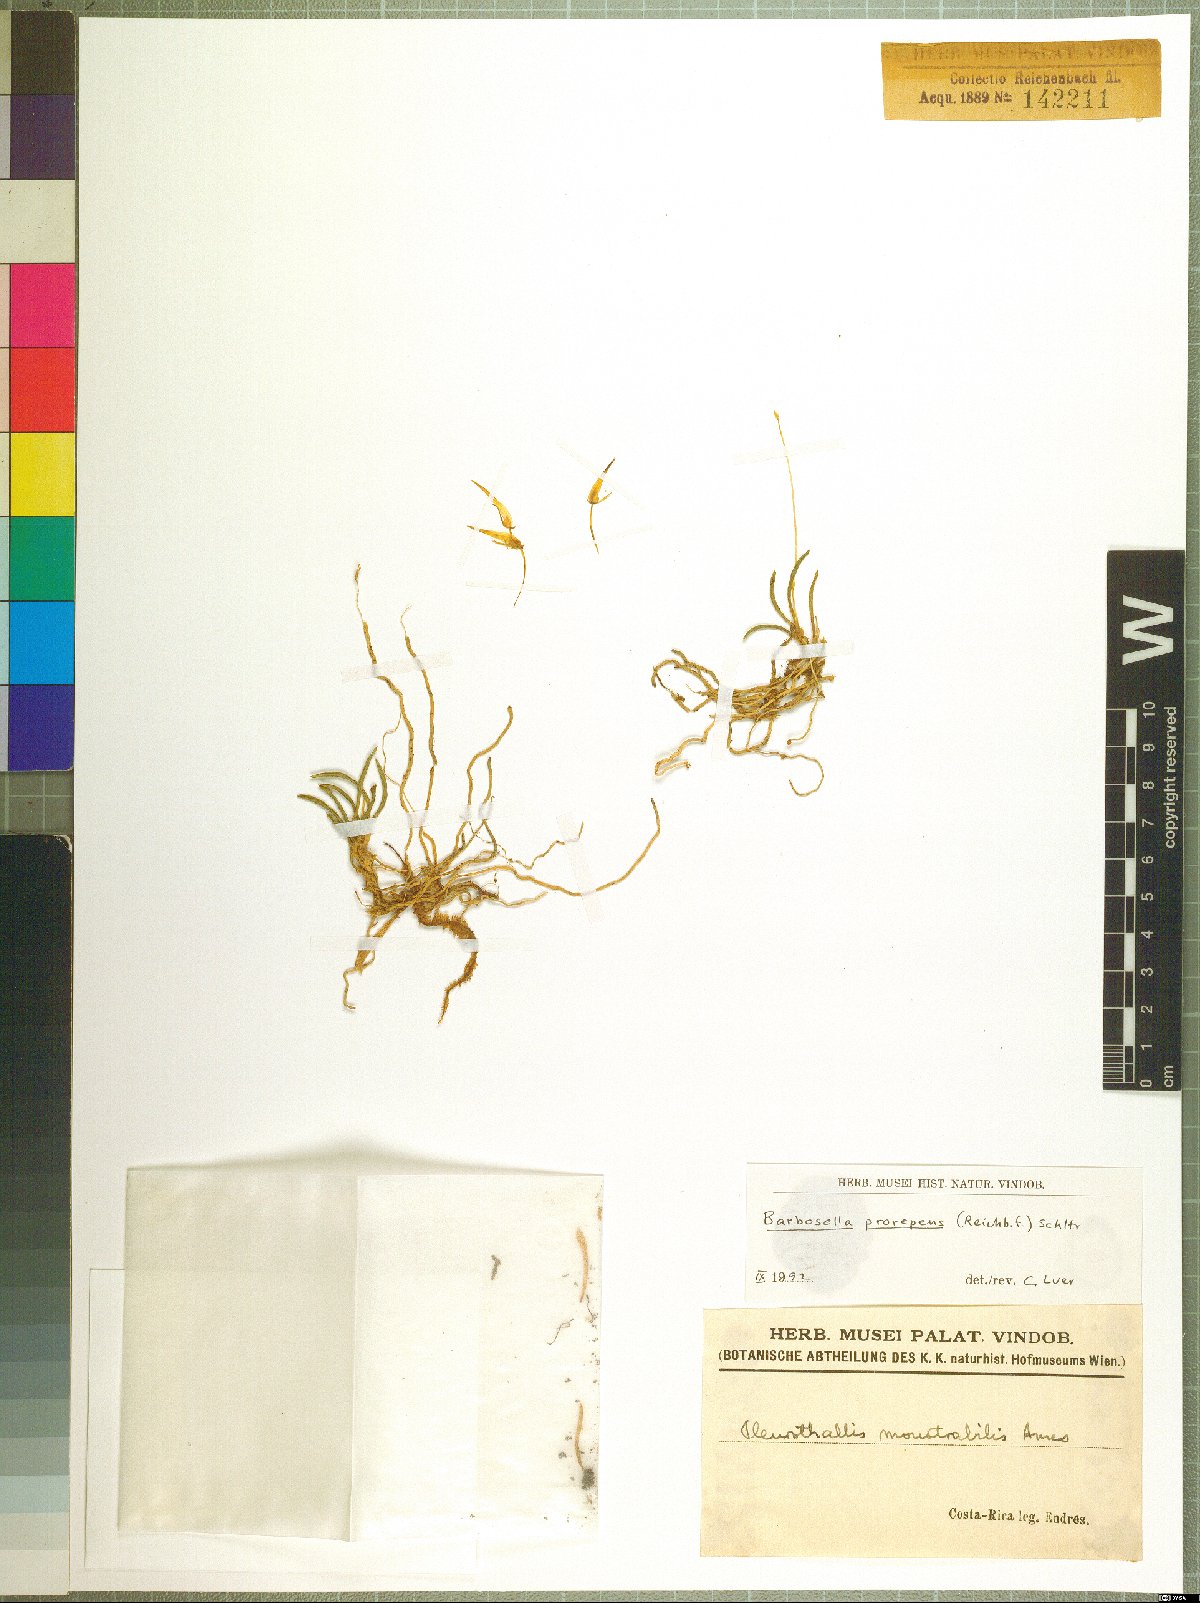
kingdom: Plantae
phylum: Tracheophyta
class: Liliopsida
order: Asparagales
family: Orchidaceae
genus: Barbosella
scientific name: Barbosella prorepens
